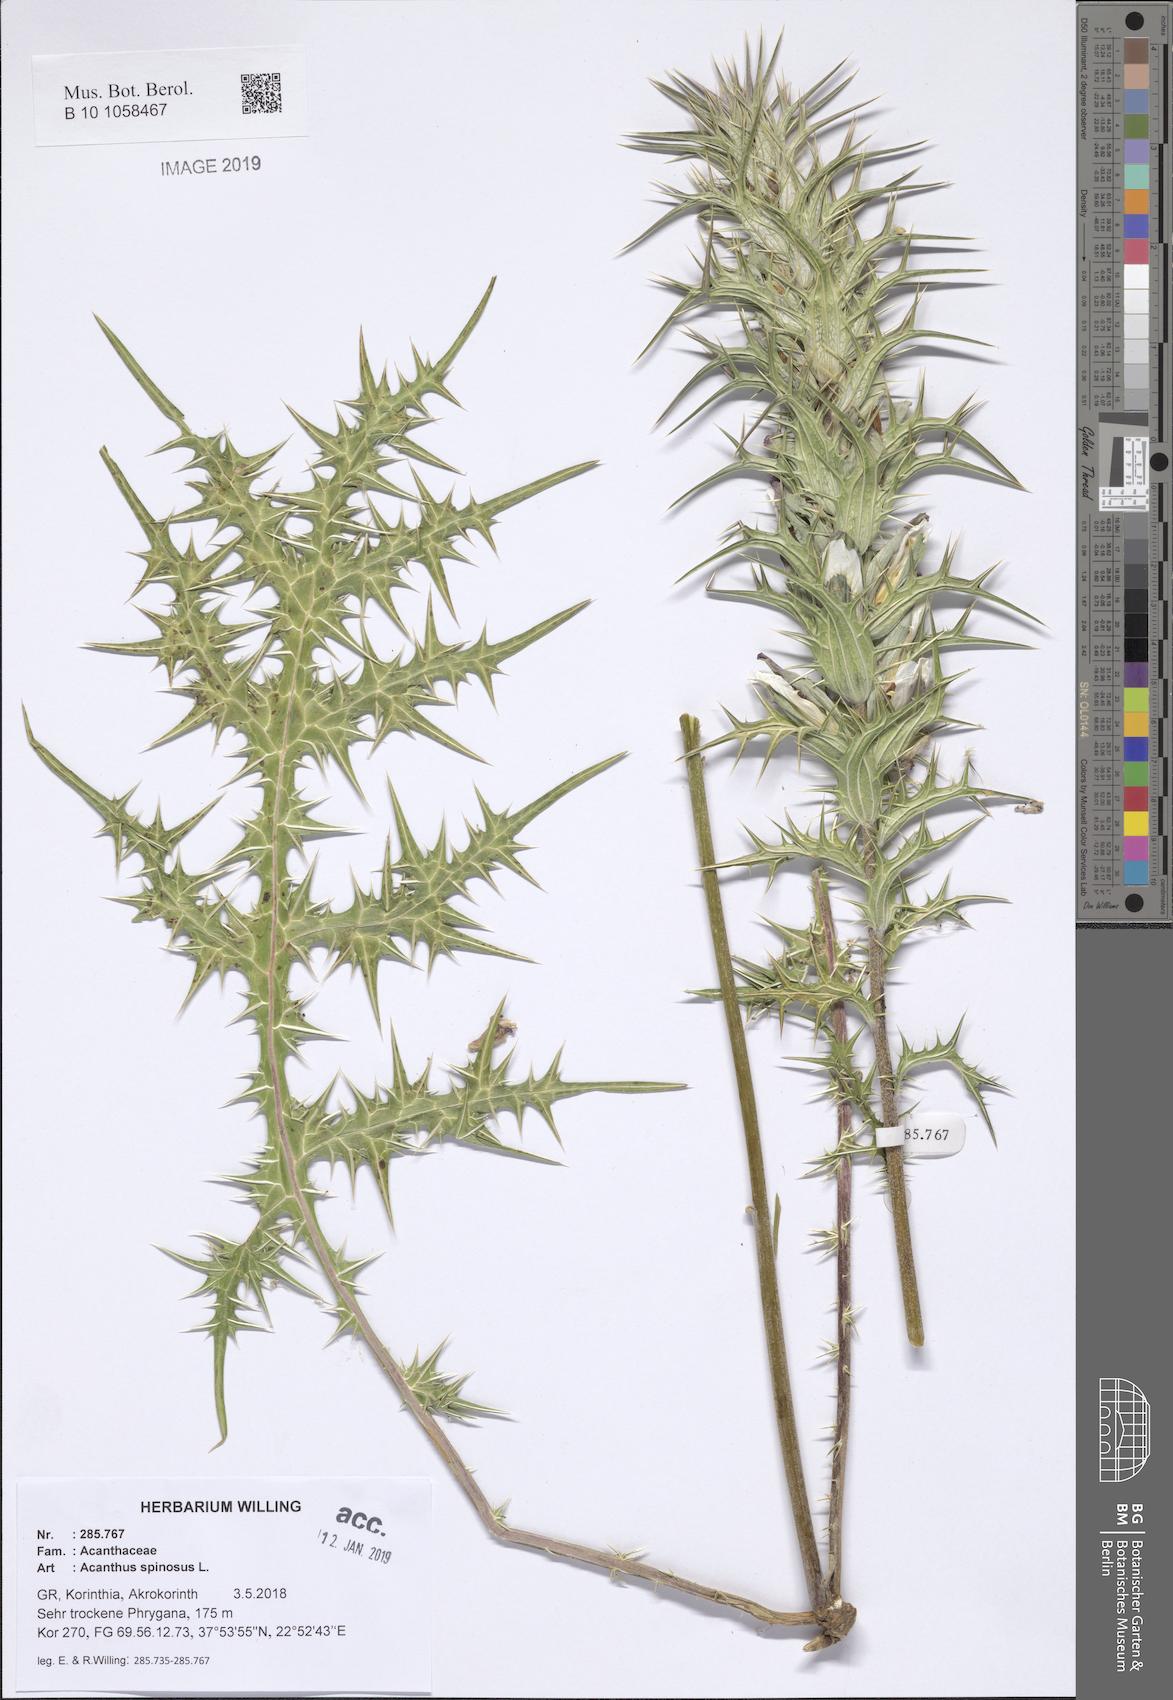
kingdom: Plantae
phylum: Tracheophyta
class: Magnoliopsida
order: Lamiales
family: Acanthaceae
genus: Acanthus
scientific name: Acanthus spinosus
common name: Spiny bear's-breech
